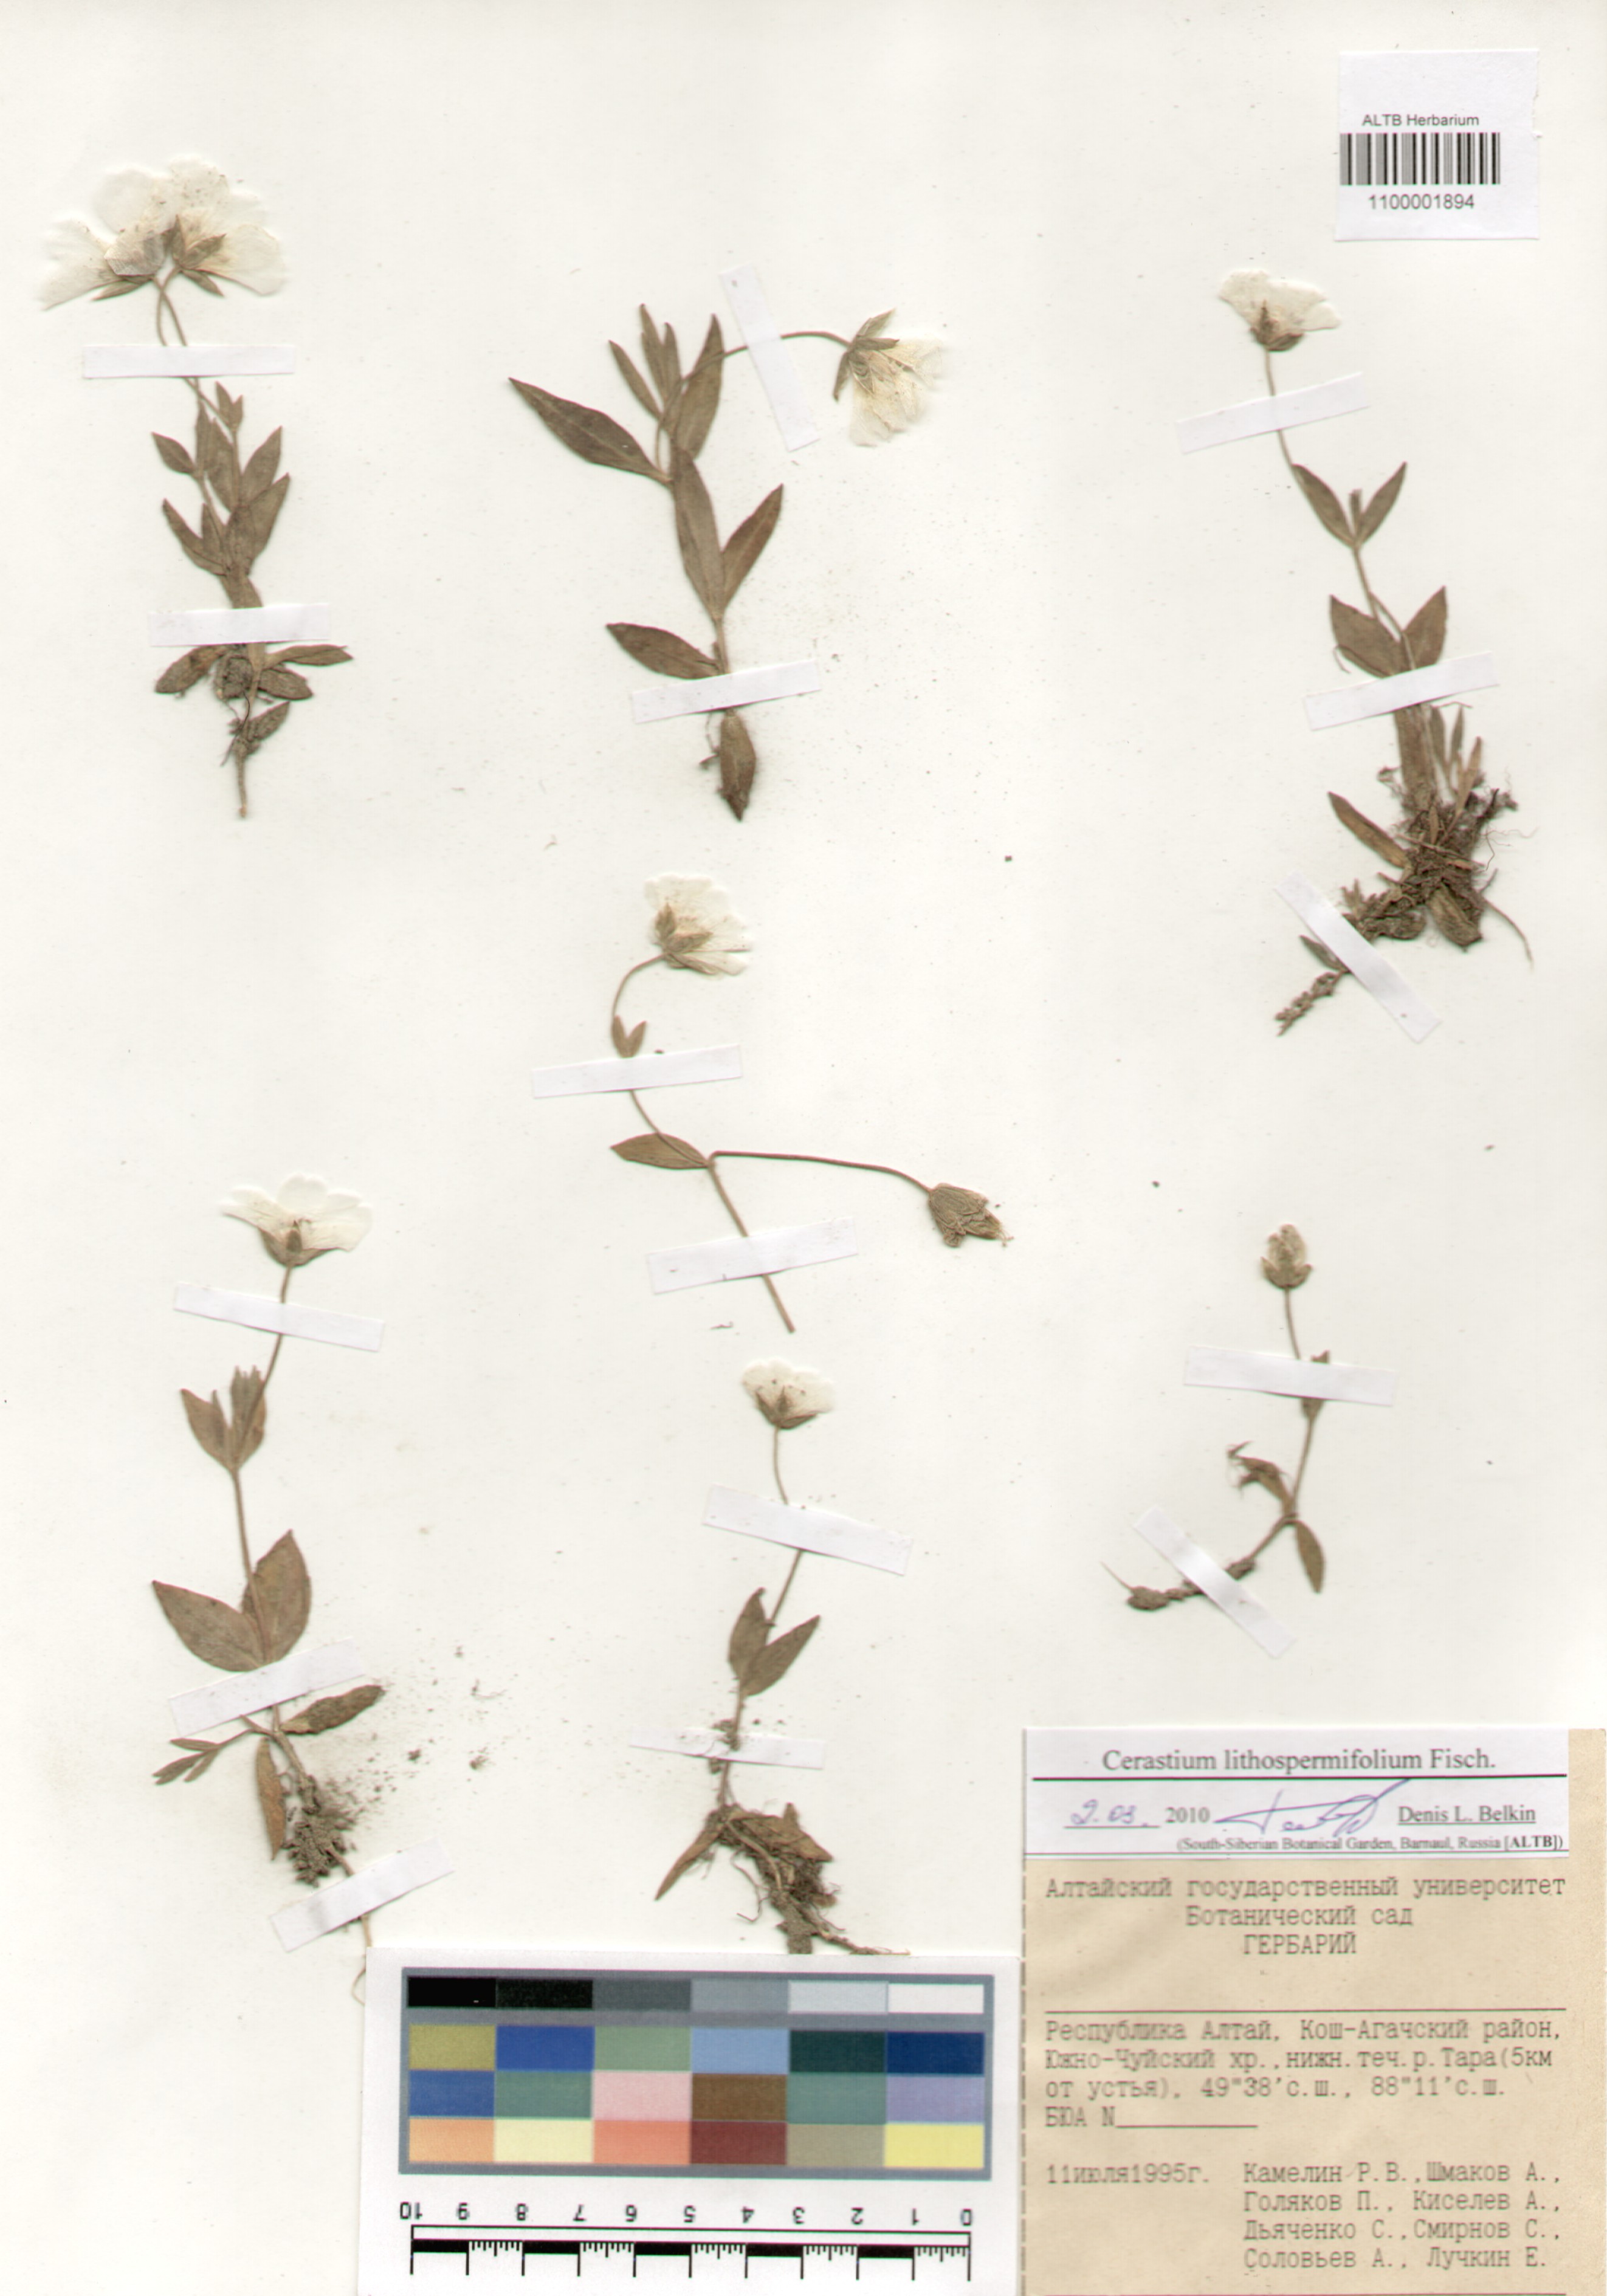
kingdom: Plantae
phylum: Tracheophyta
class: Magnoliopsida
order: Caryophyllales
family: Caryophyllaceae
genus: Cerastium
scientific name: Cerastium lithospermifolium
